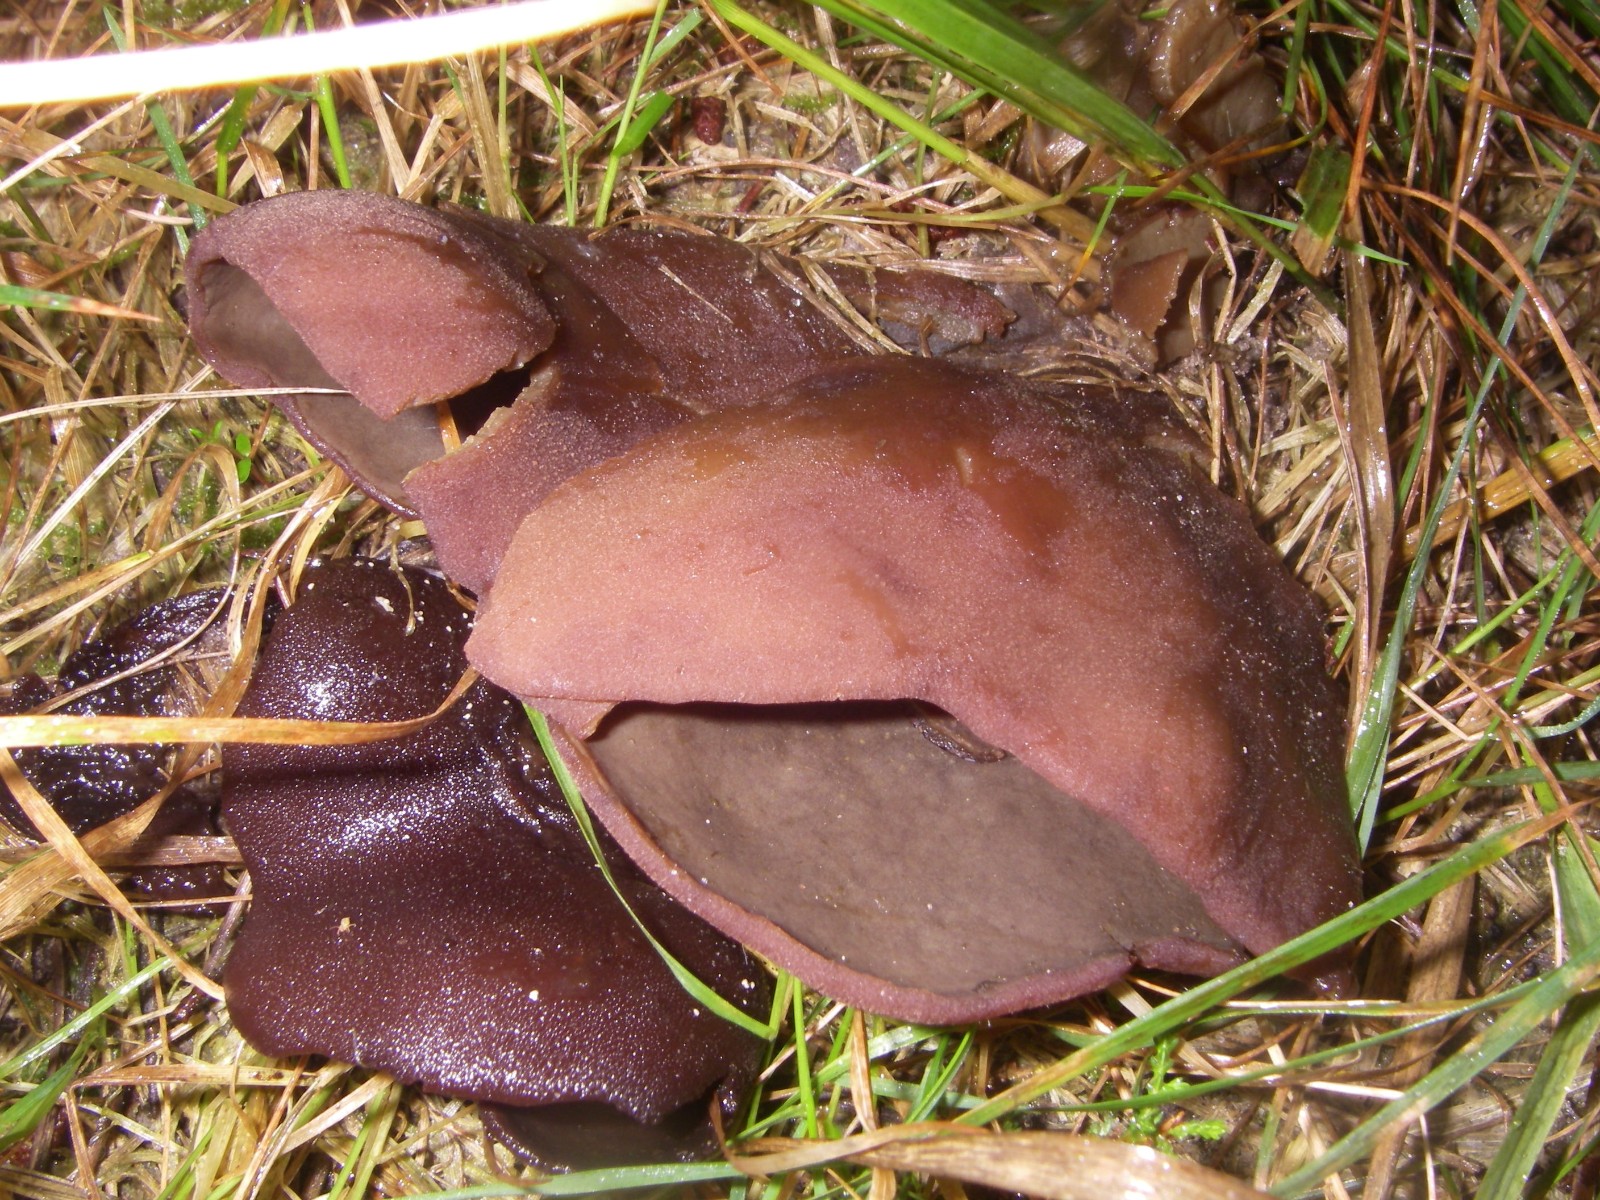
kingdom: Fungi
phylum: Ascomycota
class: Pezizomycetes
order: Pezizales
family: Pezizaceae
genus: Legaliana
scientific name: Legaliana badia
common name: leverbrun bægersvamp
